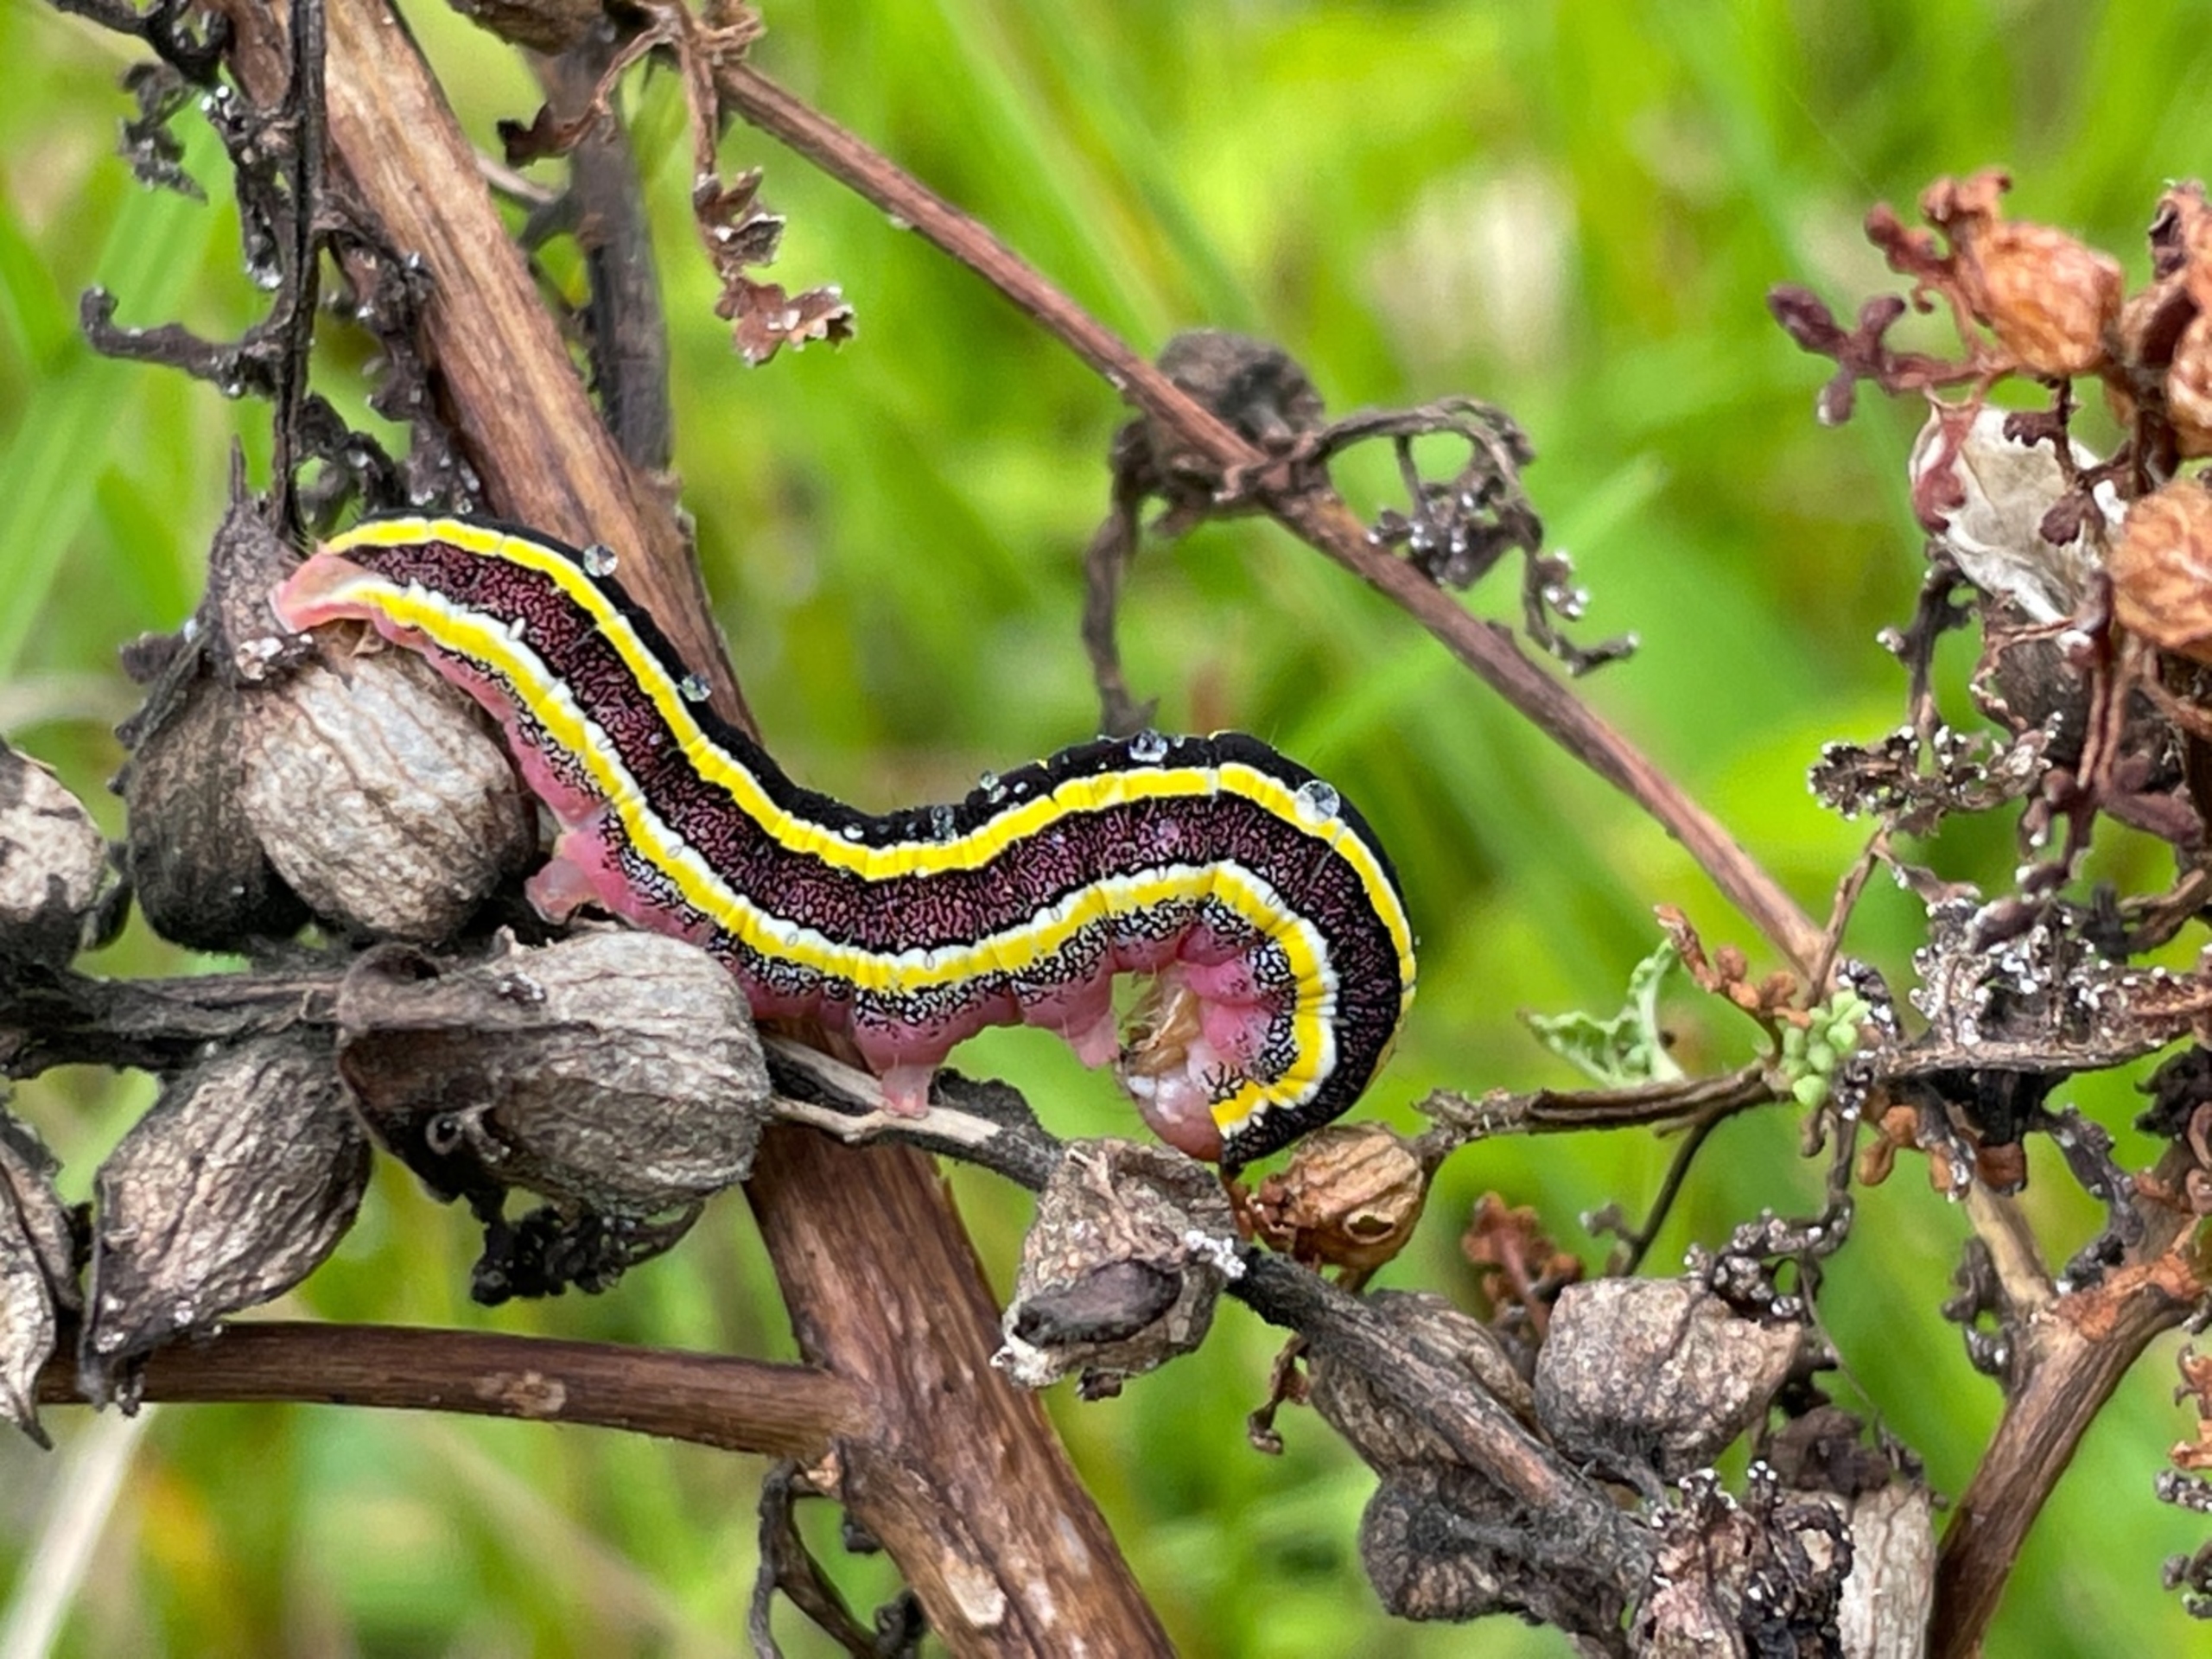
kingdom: Animalia
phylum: Arthropoda
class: Insecta
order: Lepidoptera
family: Noctuidae
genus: Ceramica
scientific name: Ceramica pisi
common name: Ærteugle
